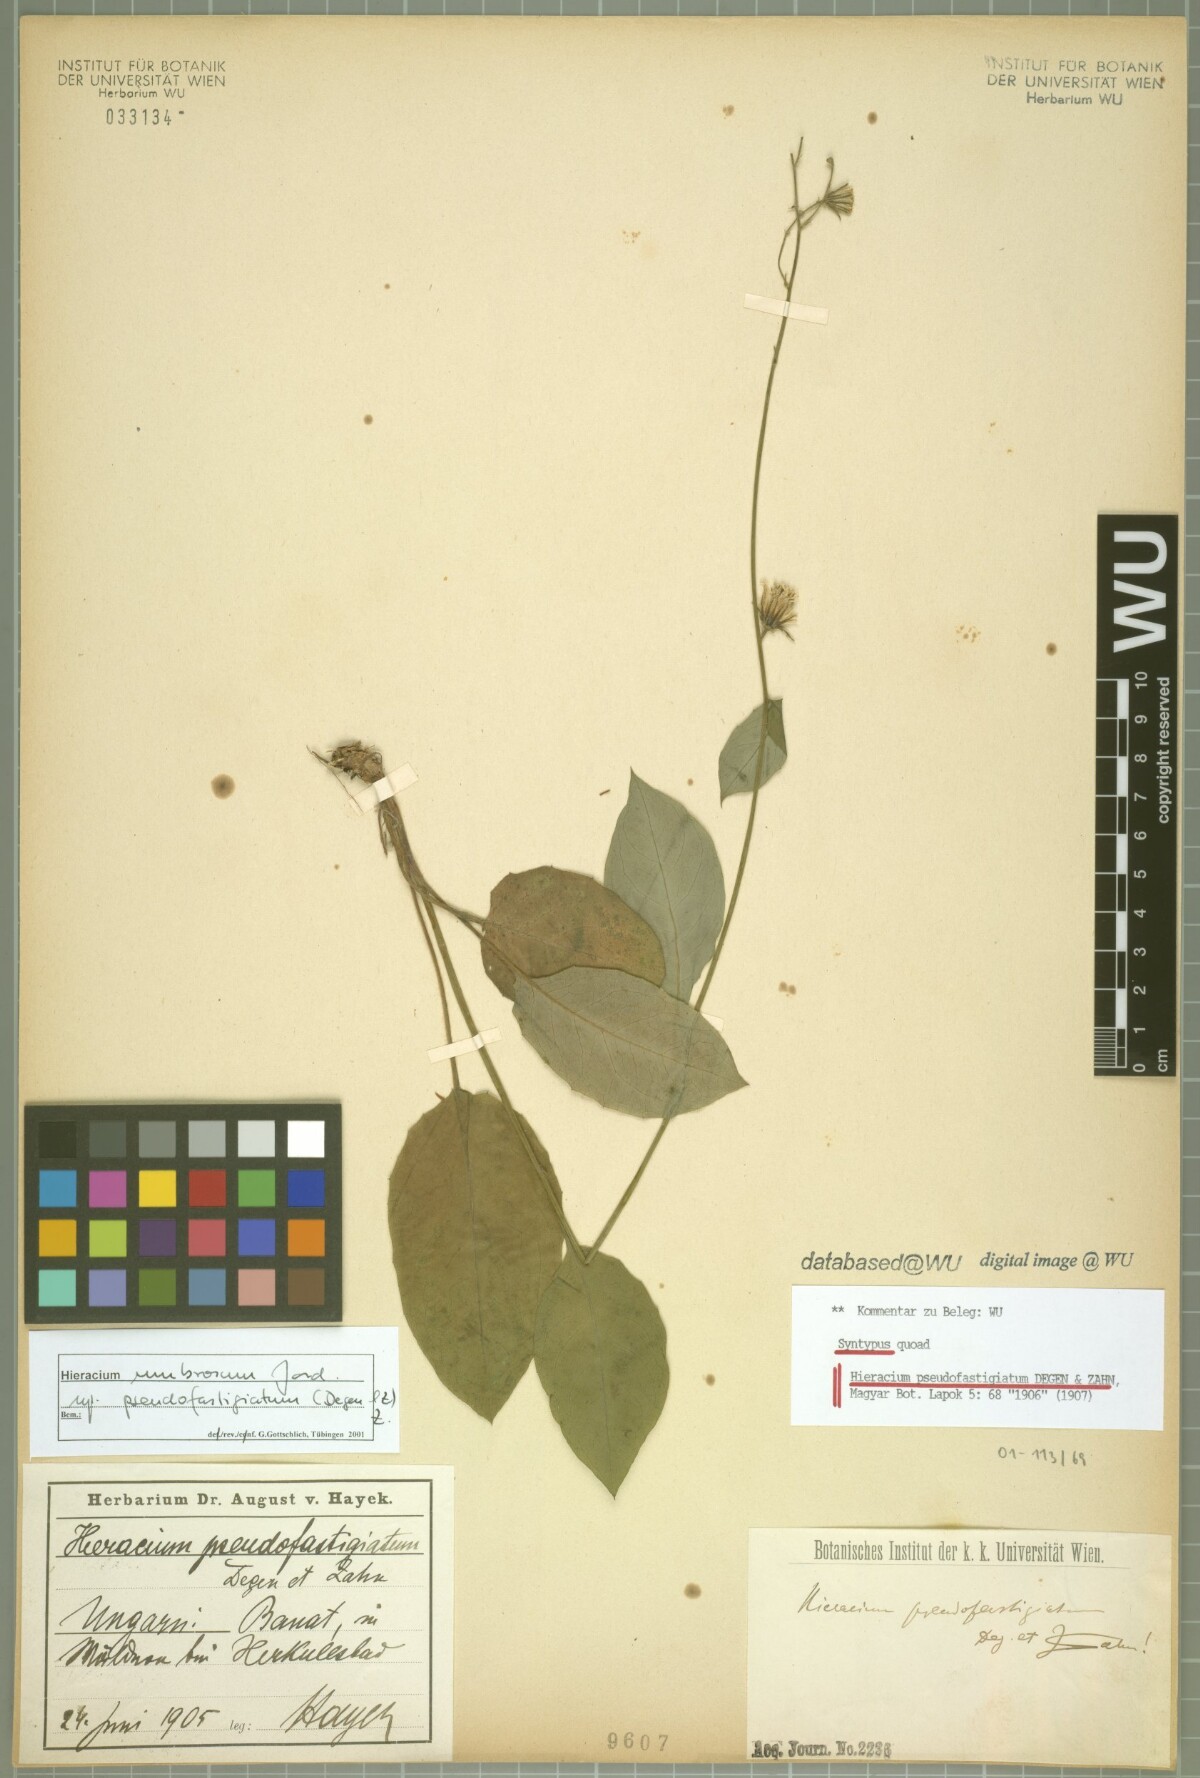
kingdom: Plantae
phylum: Tracheophyta
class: Magnoliopsida
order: Asterales
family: Asteraceae
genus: Hieracium
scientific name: Hieracium umbrosum
